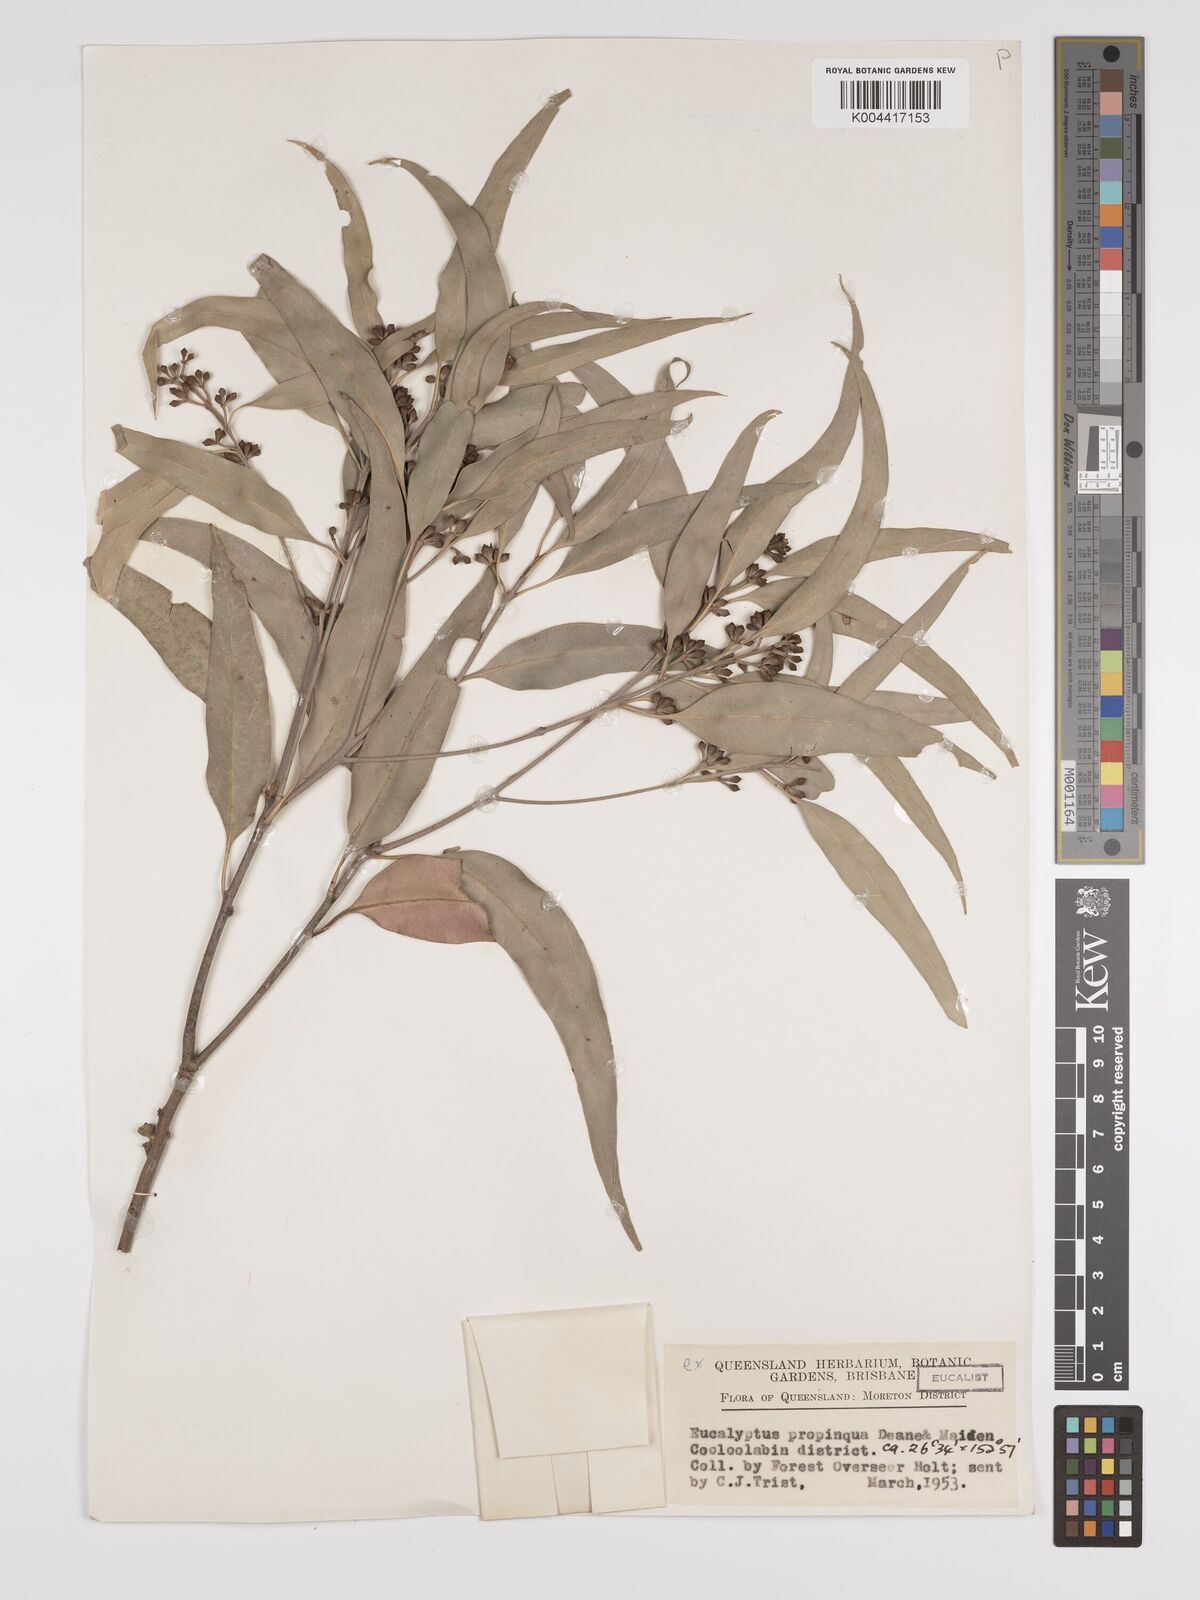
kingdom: Plantae
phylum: Tracheophyta
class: Magnoliopsida
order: Myrtales
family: Myrtaceae
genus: Eucalyptus
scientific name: Eucalyptus propinqua
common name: Grey-gum
